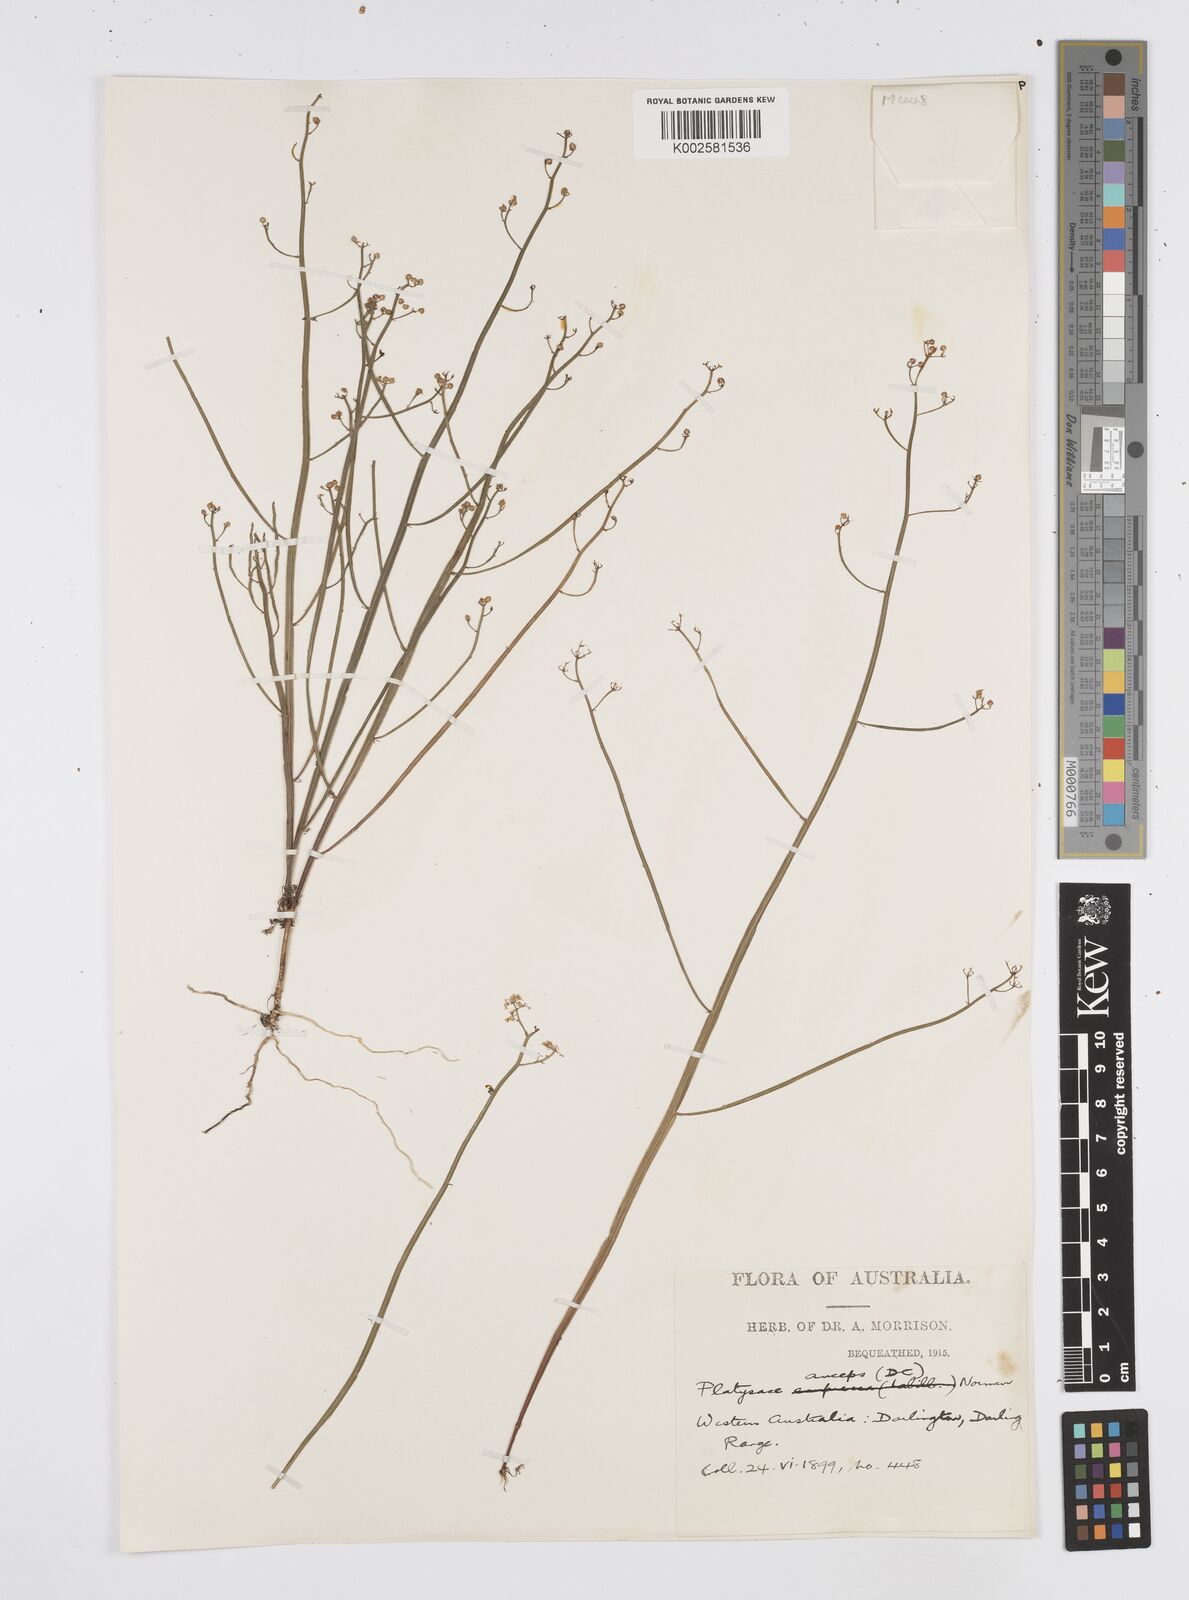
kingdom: Plantae
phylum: Tracheophyta
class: Magnoliopsida
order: Apiales
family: Apiaceae
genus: Centella
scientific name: Centella
